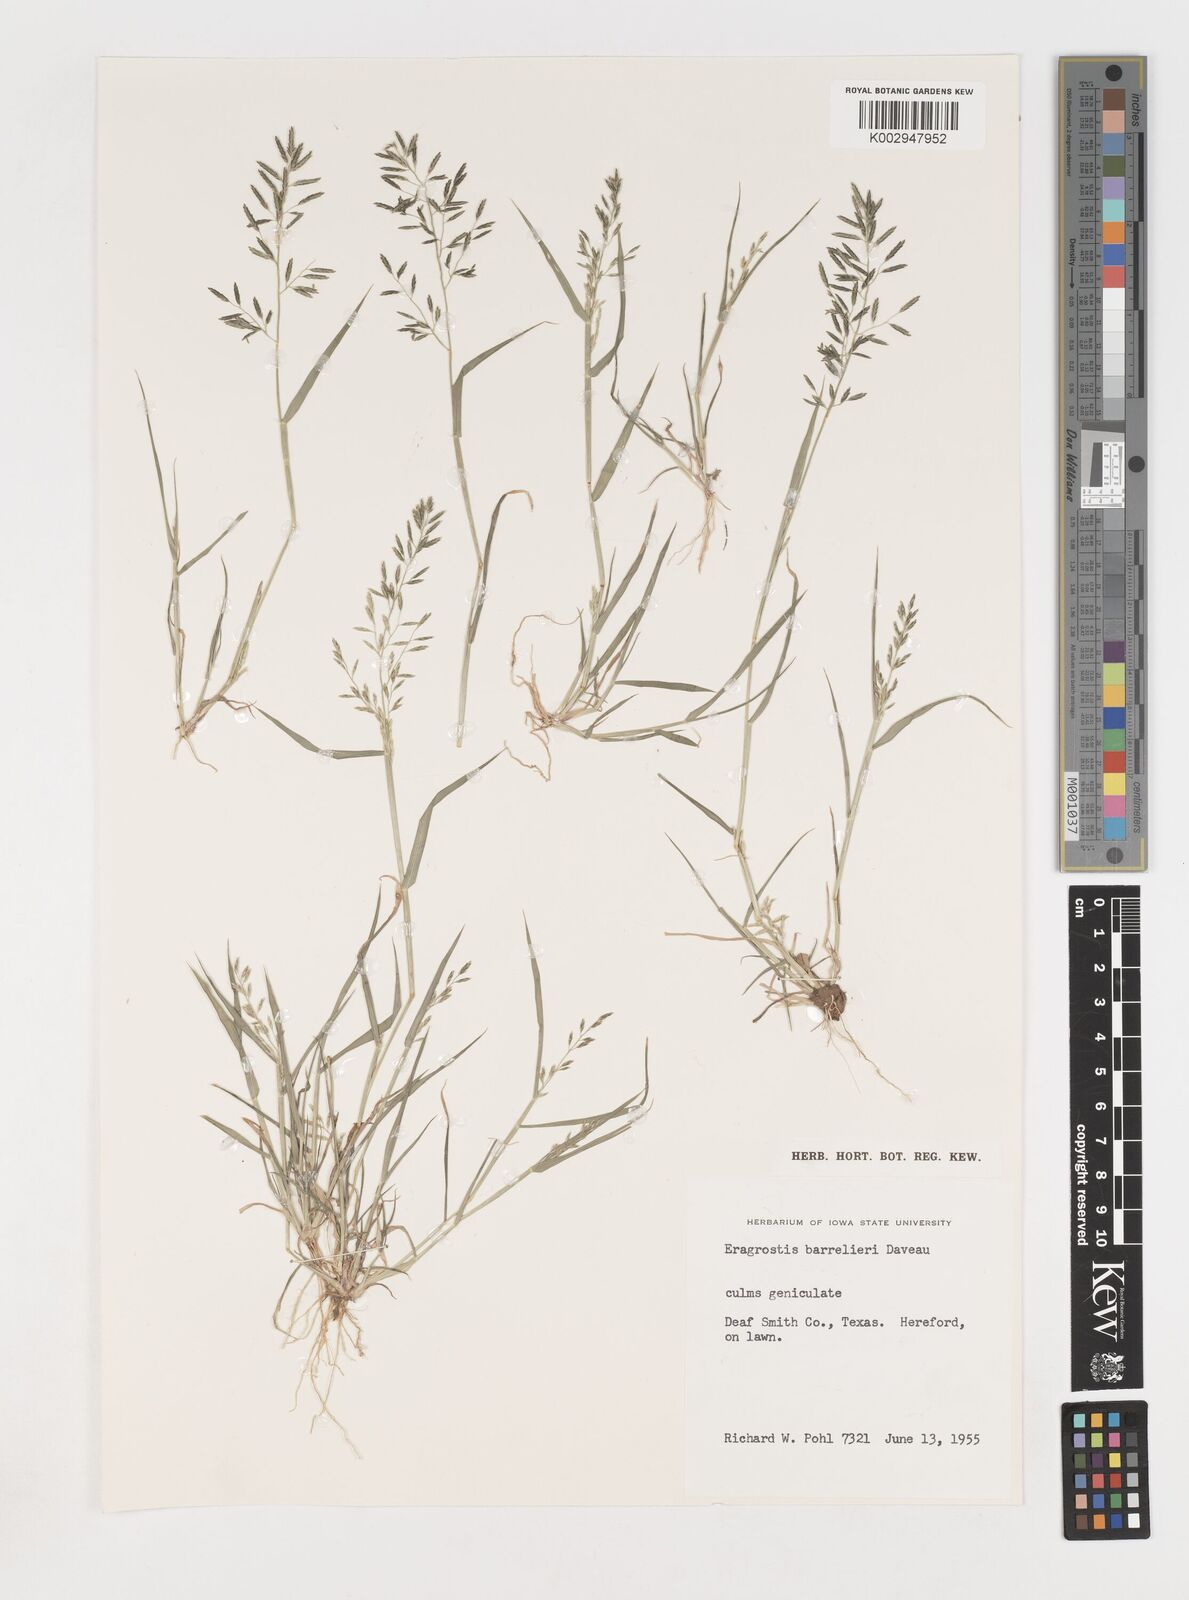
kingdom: Plantae
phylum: Tracheophyta
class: Liliopsida
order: Poales
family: Poaceae
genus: Eragrostis
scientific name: Eragrostis barrelieri
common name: Mediterranean lovegrass
